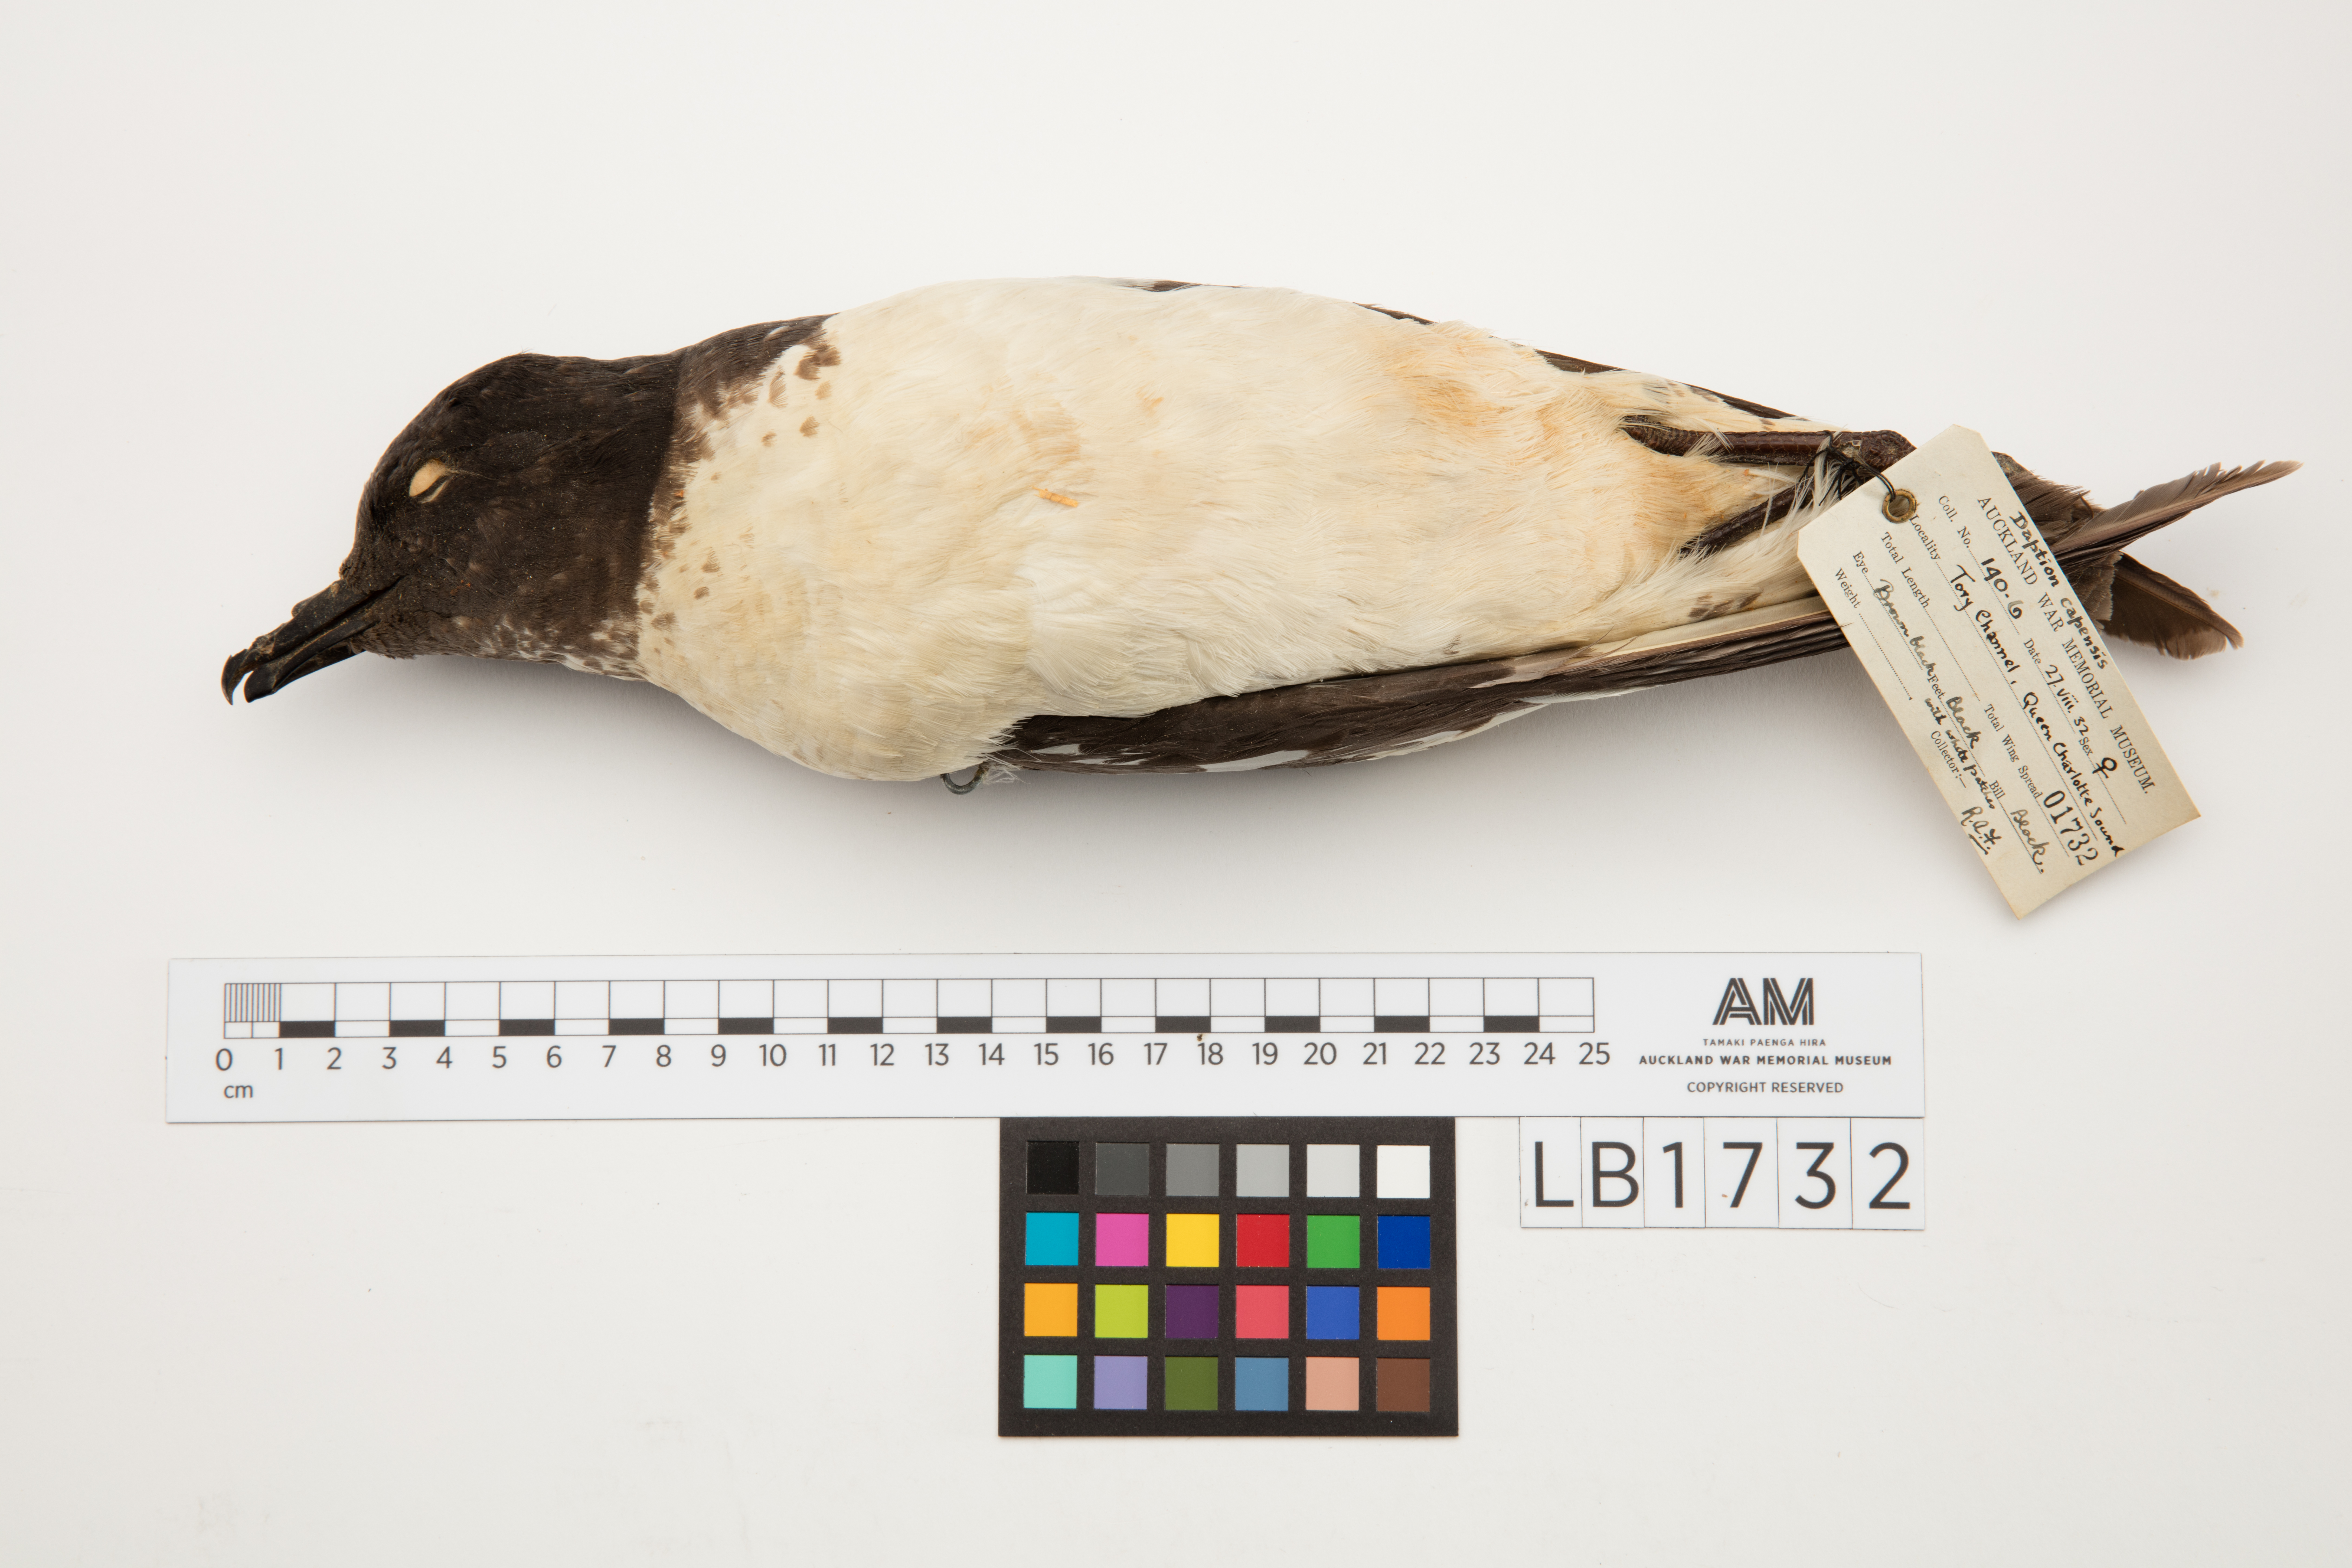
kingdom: Animalia
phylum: Chordata
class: Aves
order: Procellariiformes
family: Procellariidae
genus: Daption
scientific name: Daption capense
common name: Cape petrel
